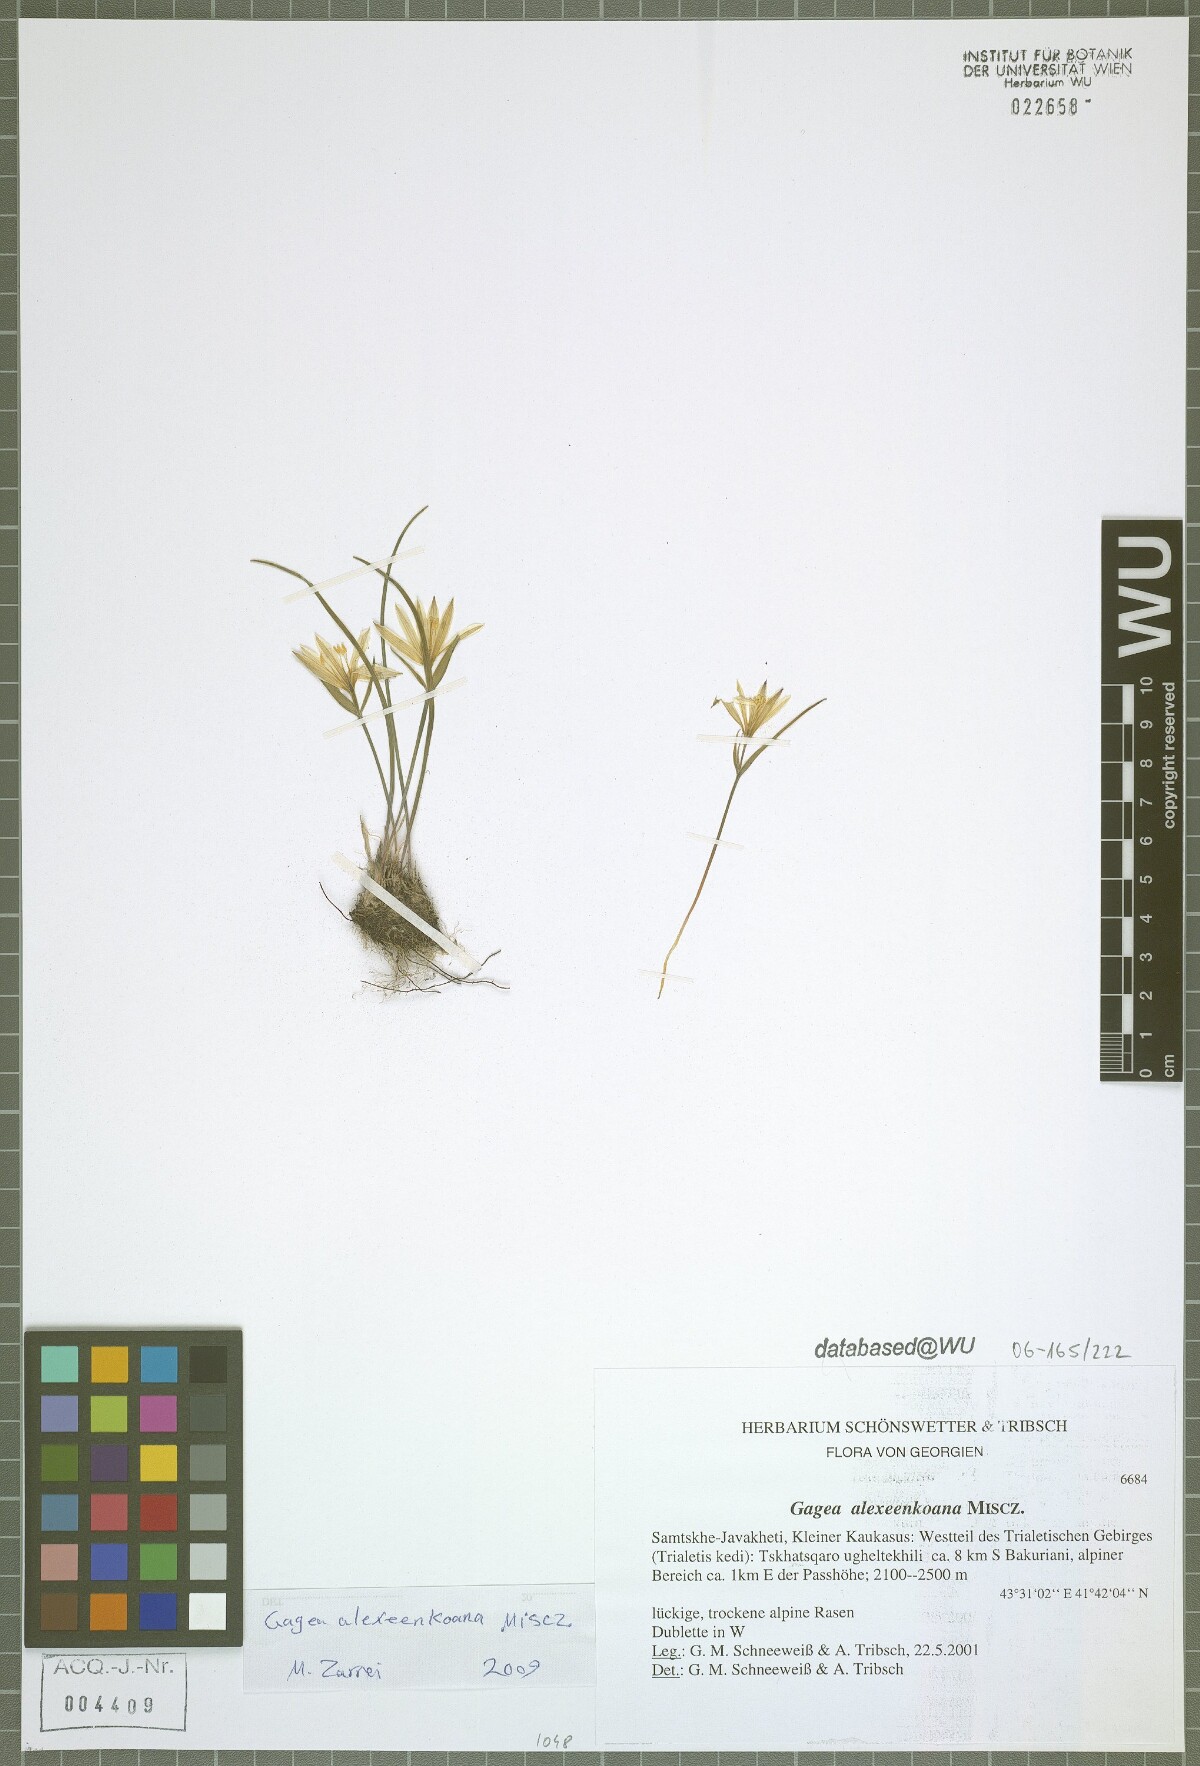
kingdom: Plantae
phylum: Tracheophyta
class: Liliopsida
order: Liliales
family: Liliaceae
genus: Gagea
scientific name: Gagea alexeenkoana
